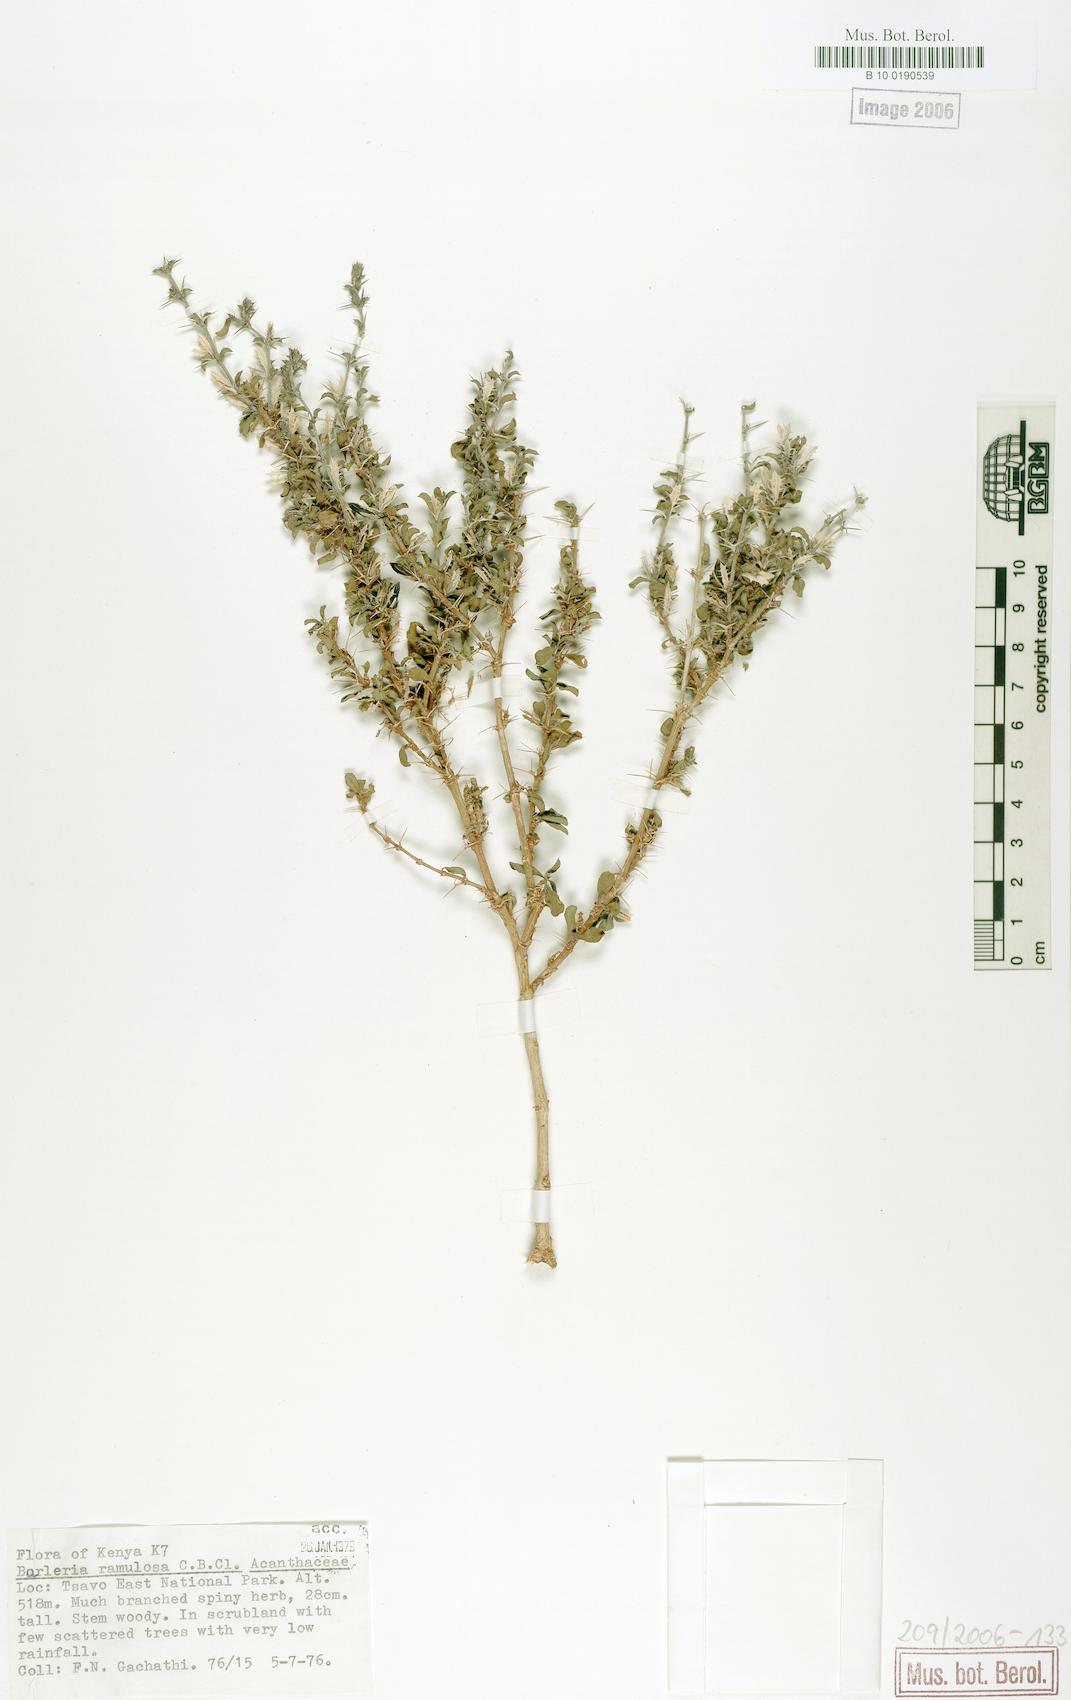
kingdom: Plantae
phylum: Tracheophyta
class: Magnoliopsida
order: Lamiales
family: Acanthaceae
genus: Barleria
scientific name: Barleria ramulosa
